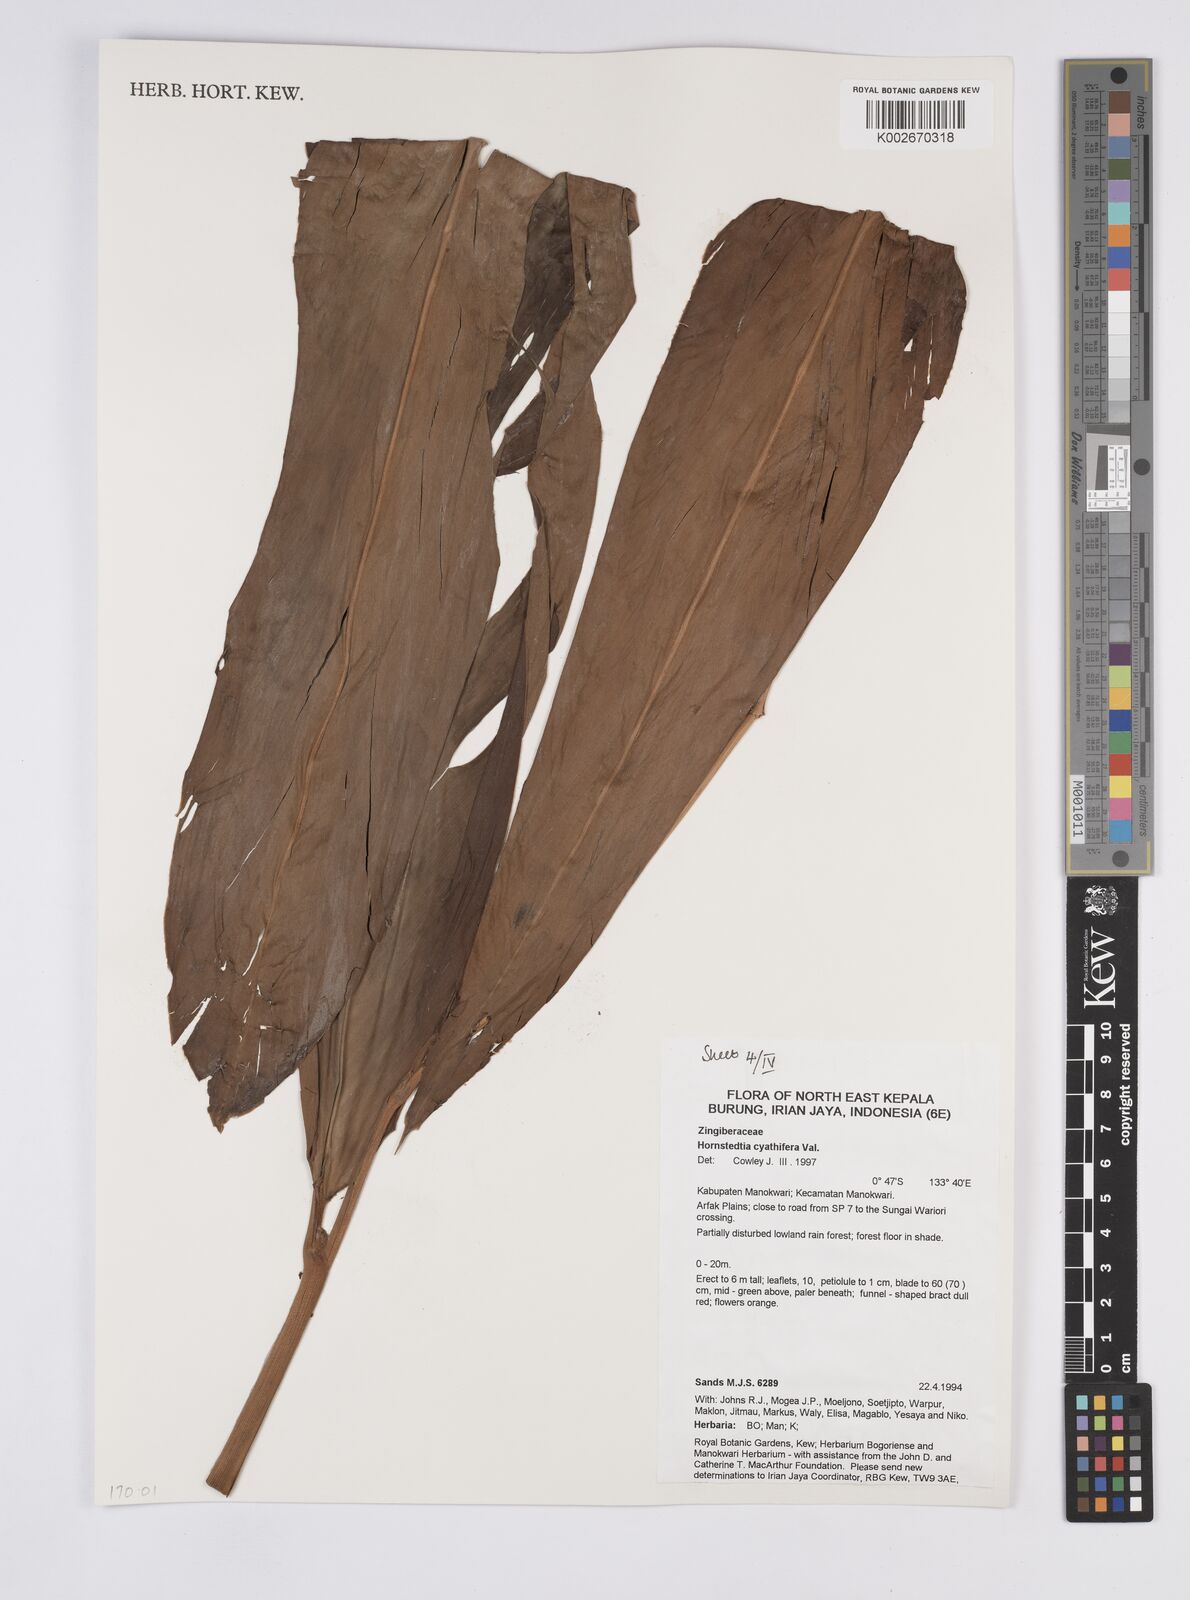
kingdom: Plantae
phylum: Tracheophyta
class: Liliopsida
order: Zingiberales
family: Zingiberaceae
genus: Hornstedtia
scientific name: Hornstedtia cyathifera
